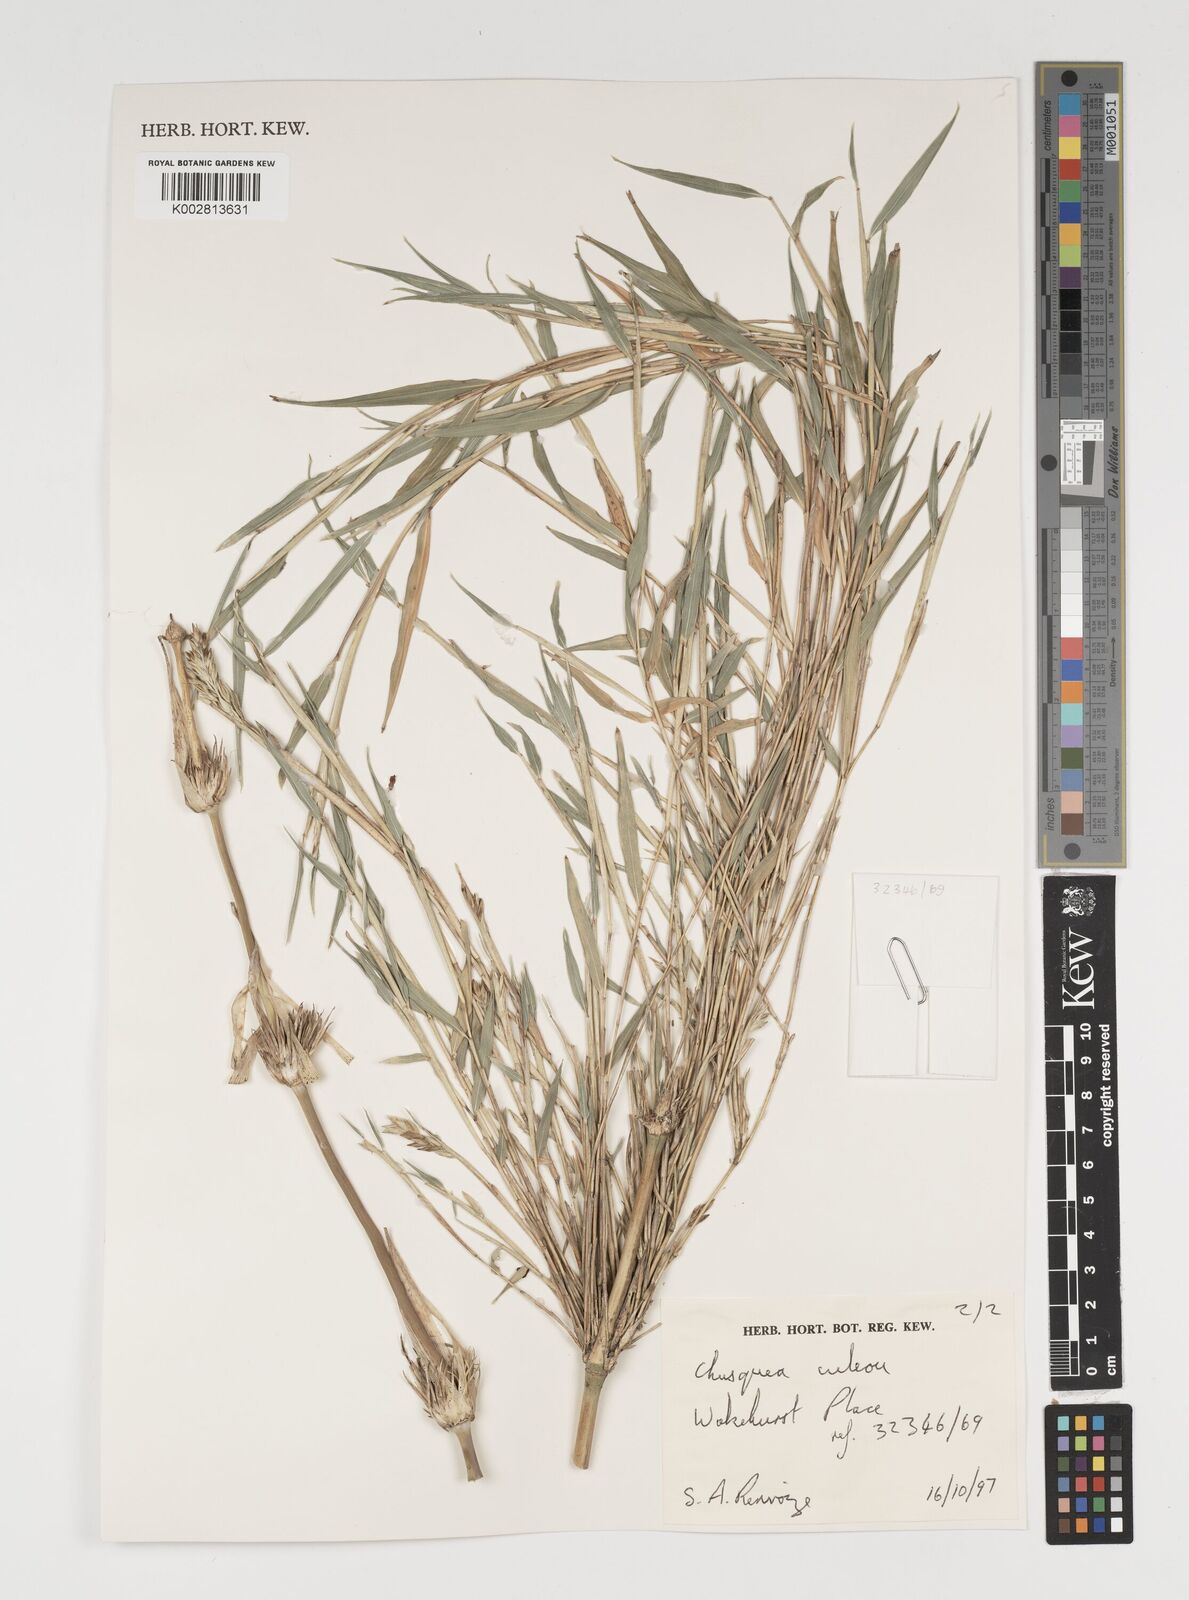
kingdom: Plantae
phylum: Tracheophyta
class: Liliopsida
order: Poales
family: Poaceae
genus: Chusquea
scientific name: Chusquea culeou
